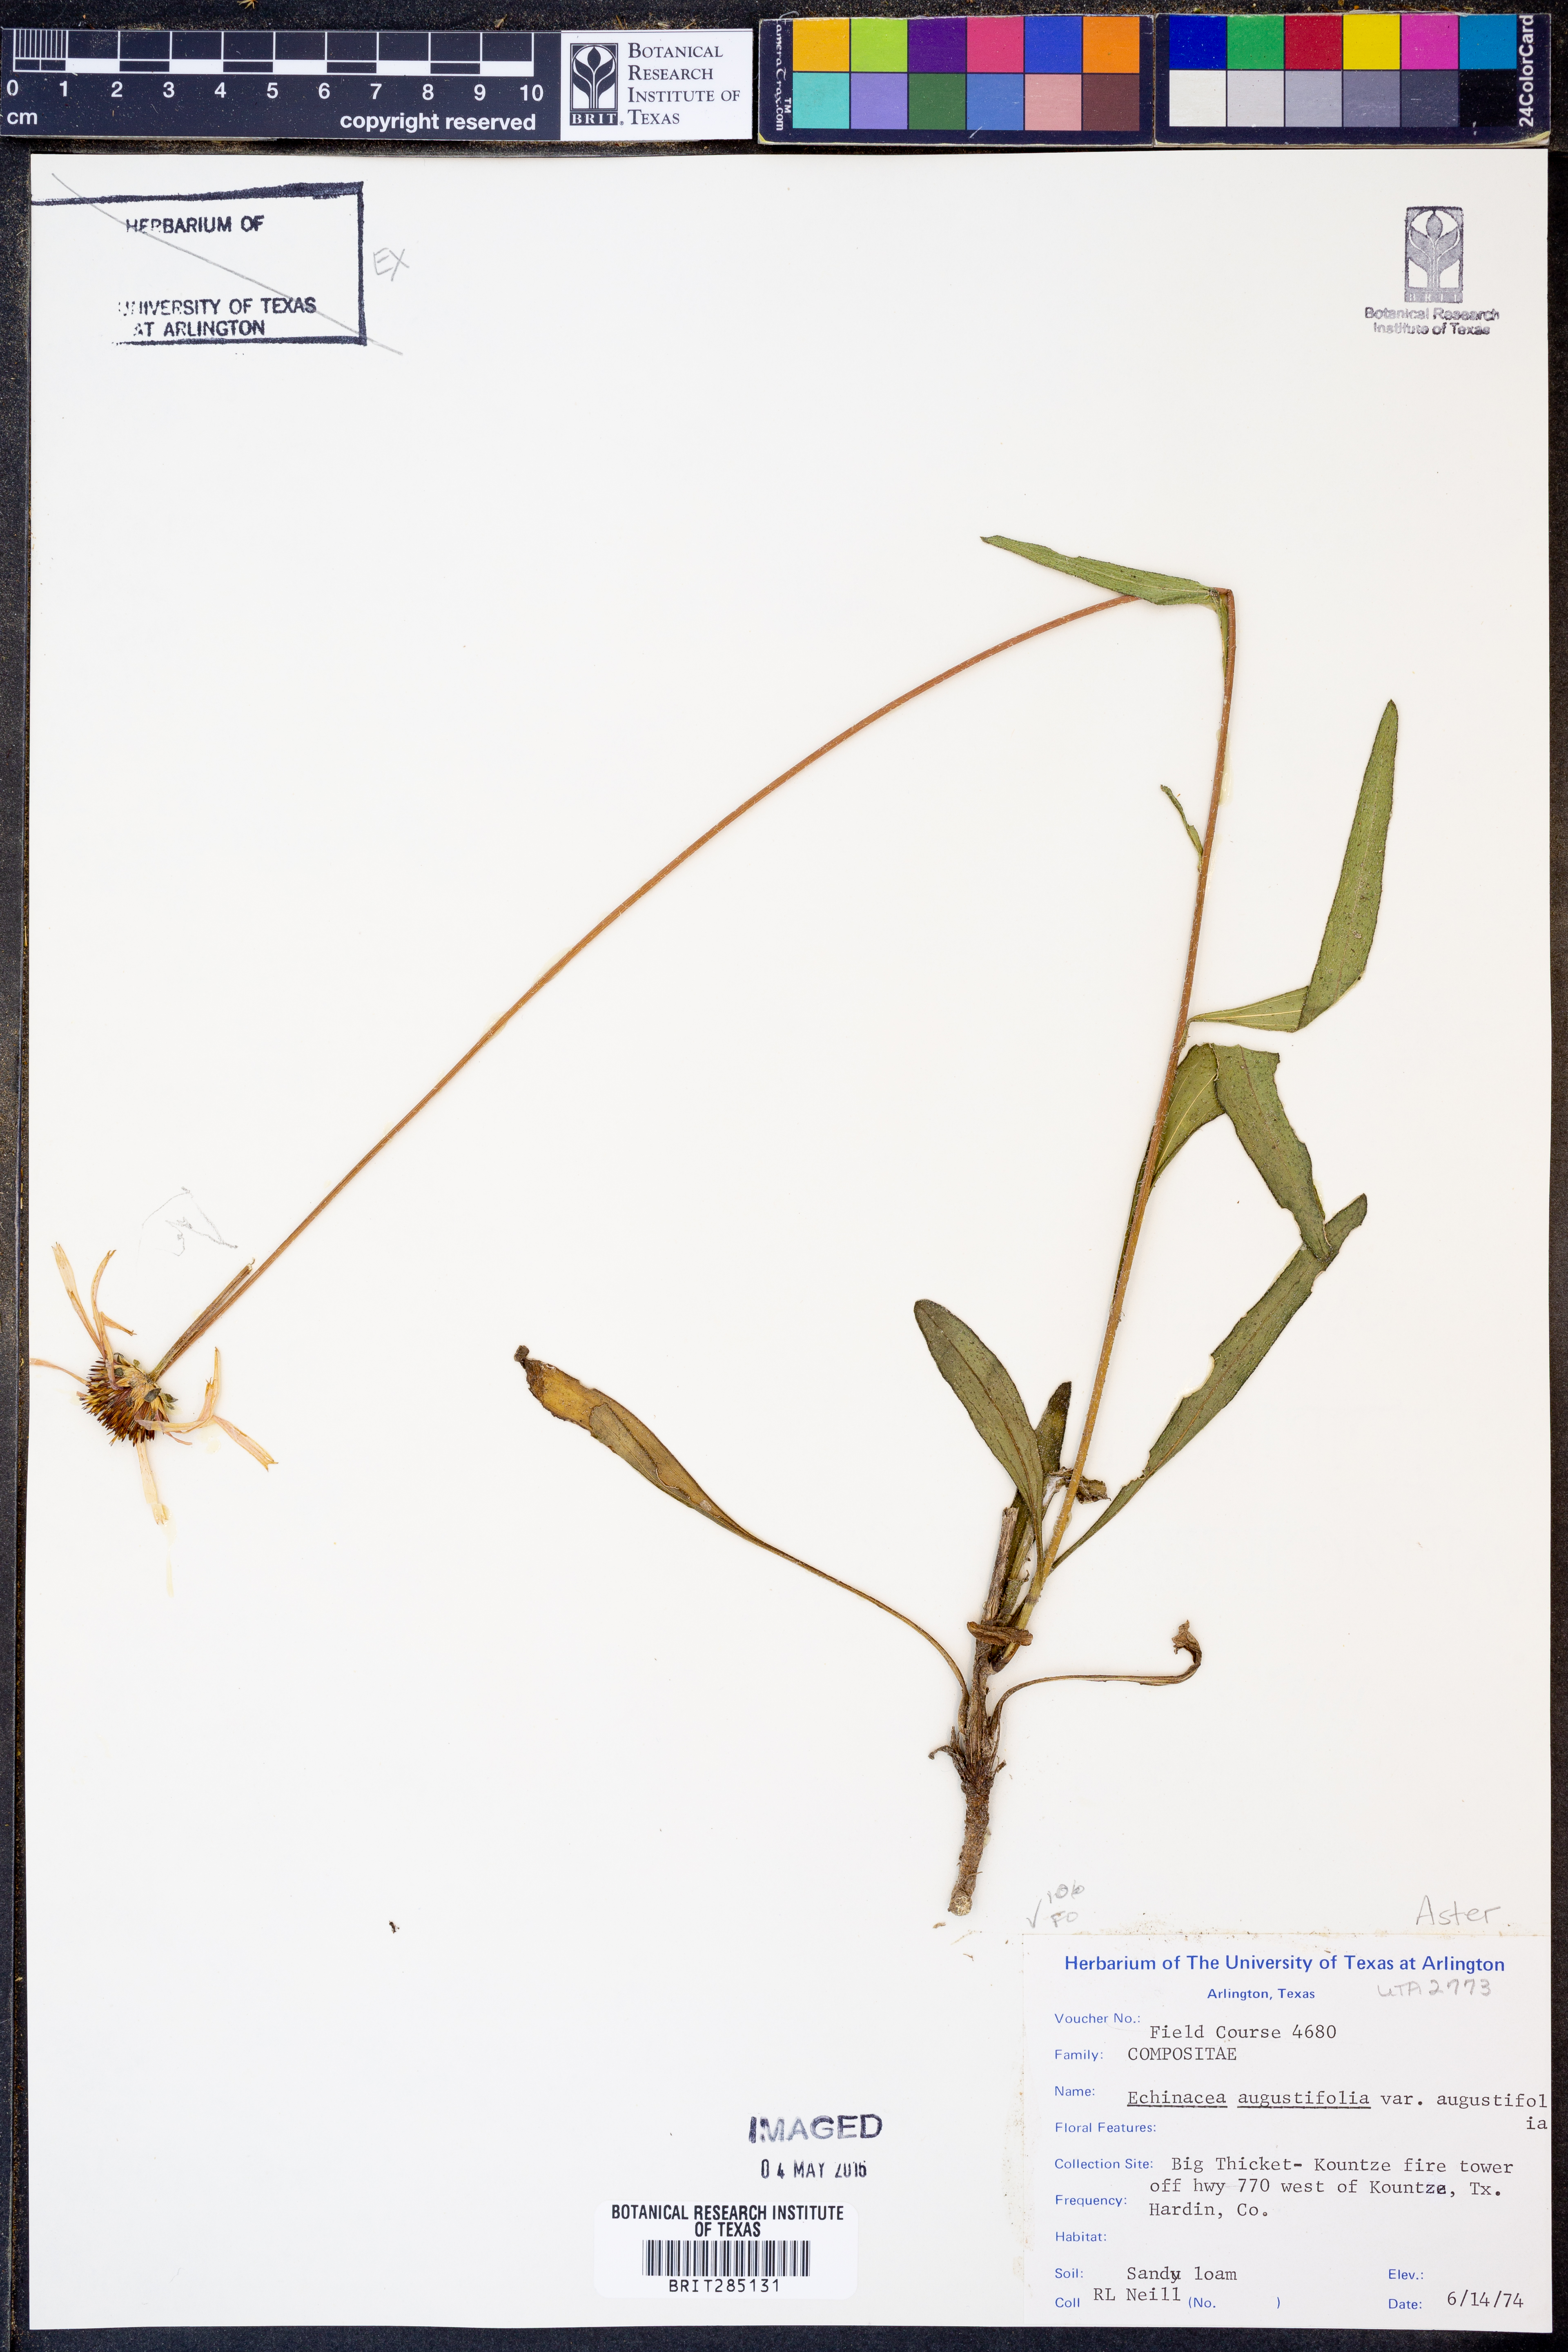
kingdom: Plantae
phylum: Tracheophyta
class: Magnoliopsida
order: Asterales
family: Asteraceae
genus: Echinacea
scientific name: Echinacea angustifolia
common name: Black-sampson echinacea
